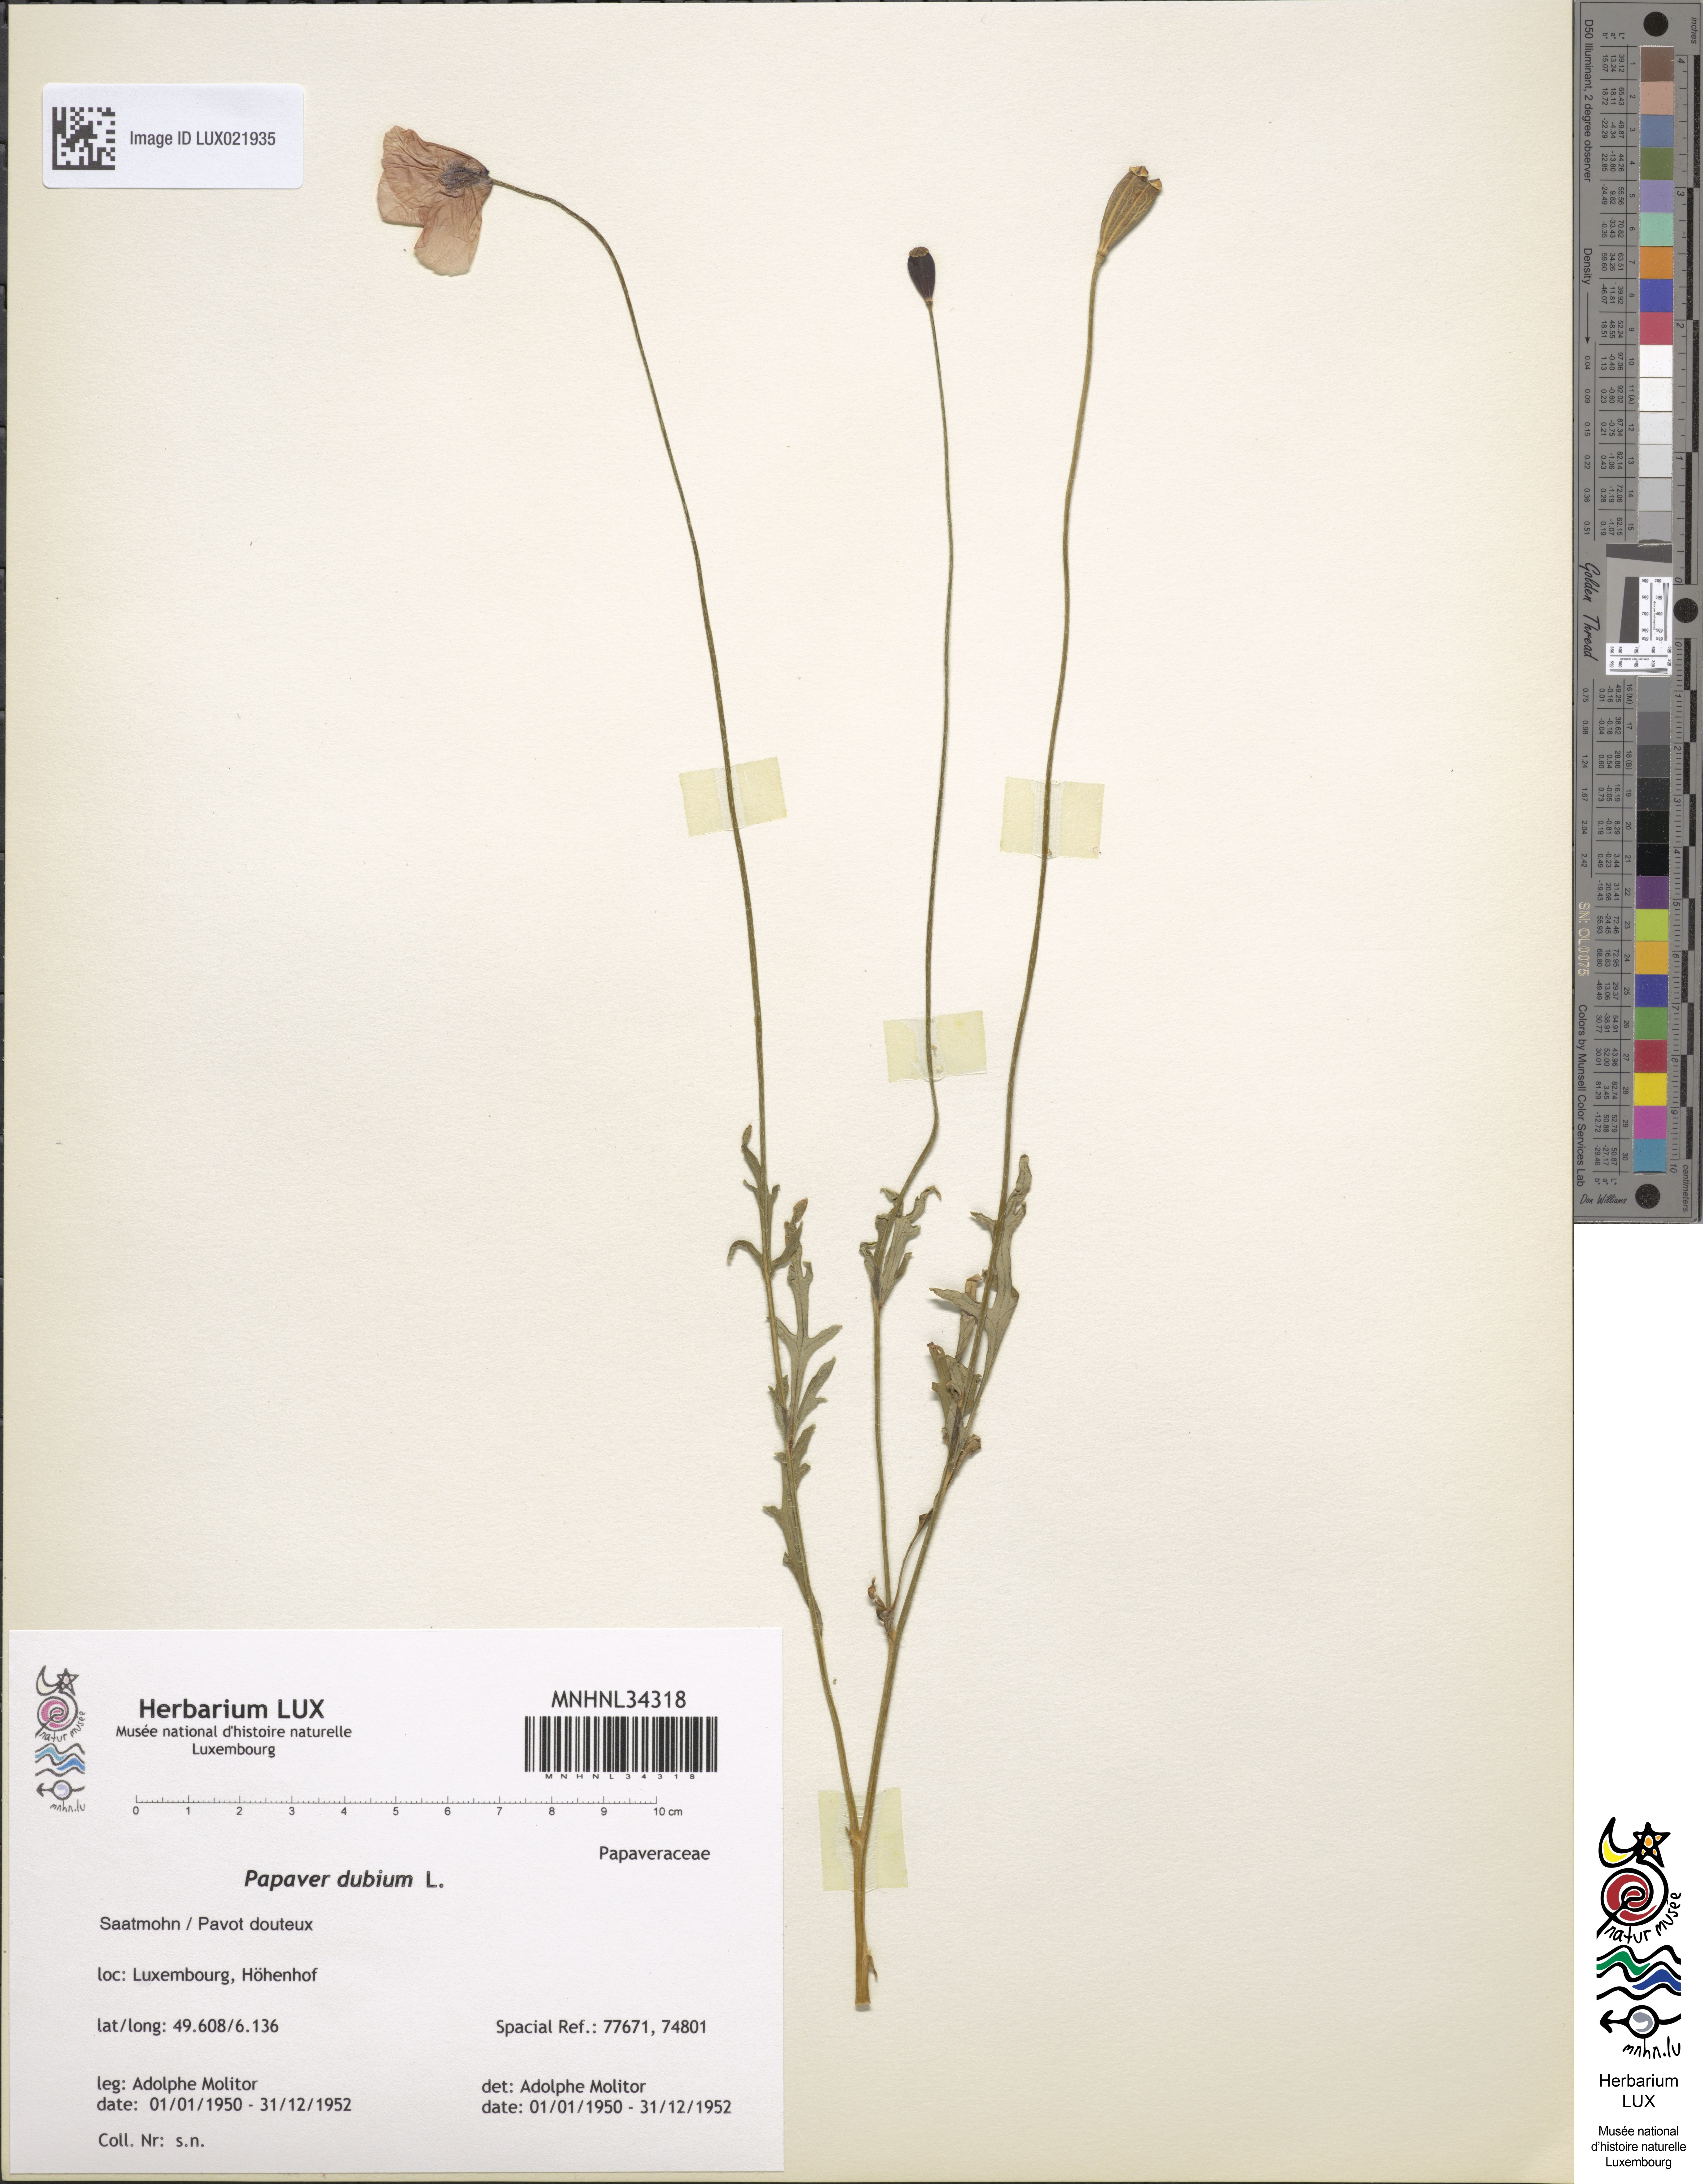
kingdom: Plantae
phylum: Tracheophyta
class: Magnoliopsida
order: Ranunculales
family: Papaveraceae
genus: Papaver
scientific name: Papaver dubium
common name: Long-headed poppy
